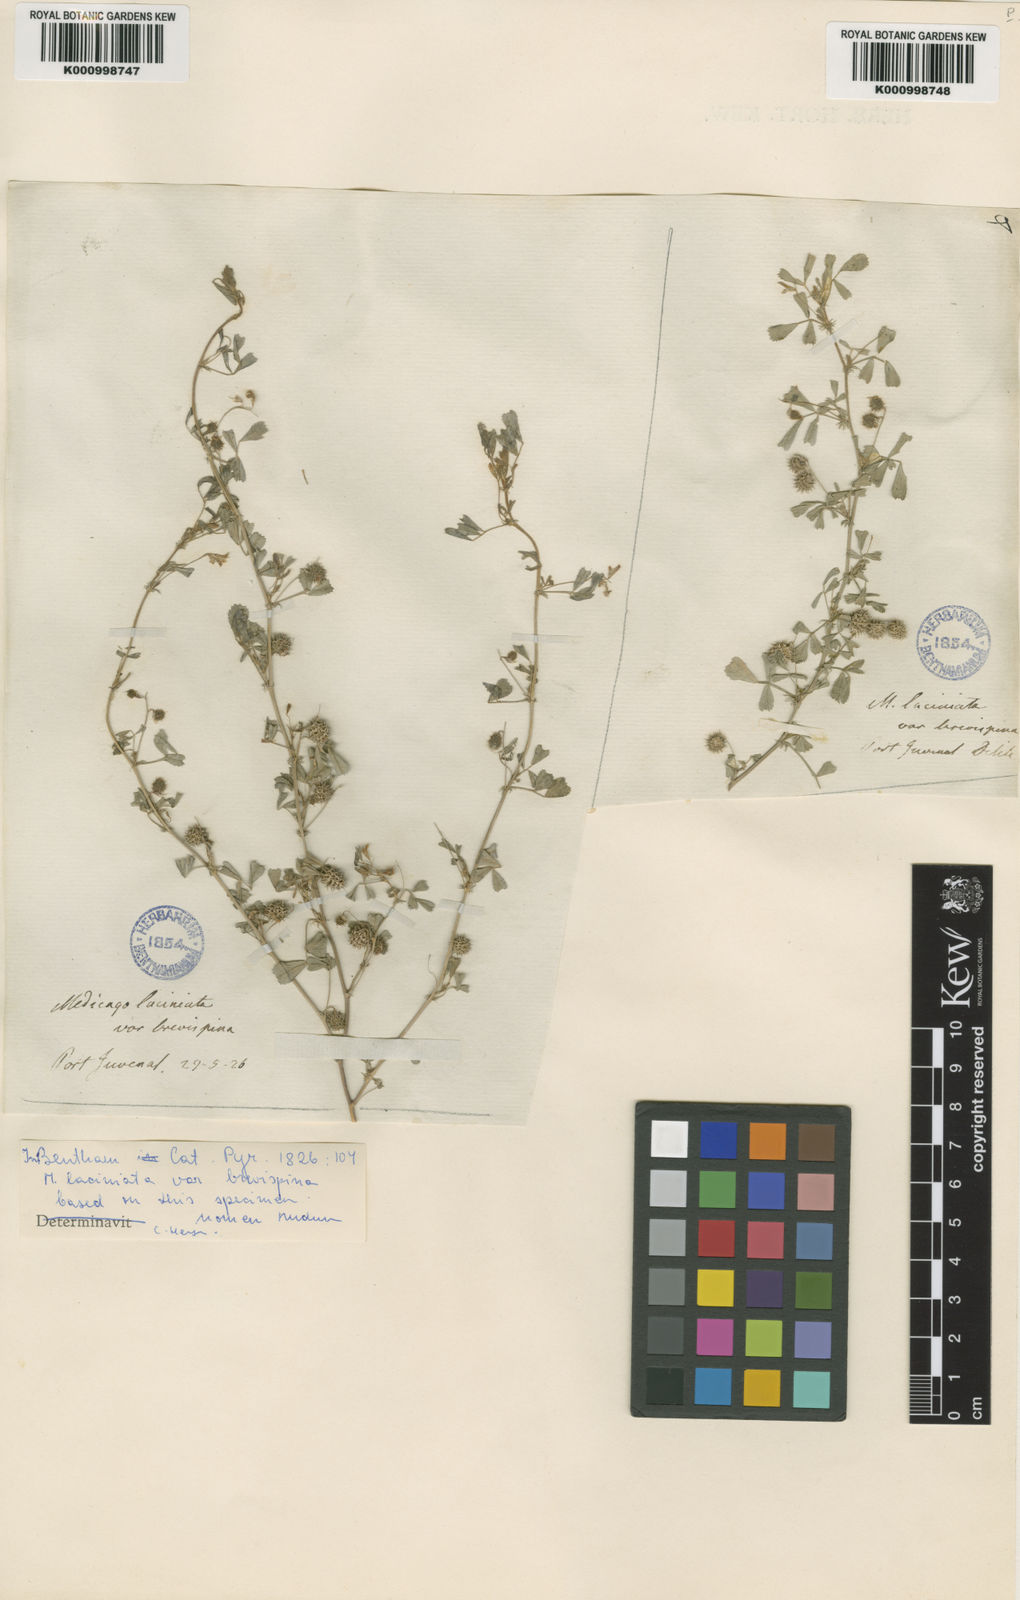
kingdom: Plantae
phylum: Tracheophyta
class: Magnoliopsida
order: Fabales
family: Fabaceae
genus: Medicago
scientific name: Medicago laciniata
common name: Tattered medick
